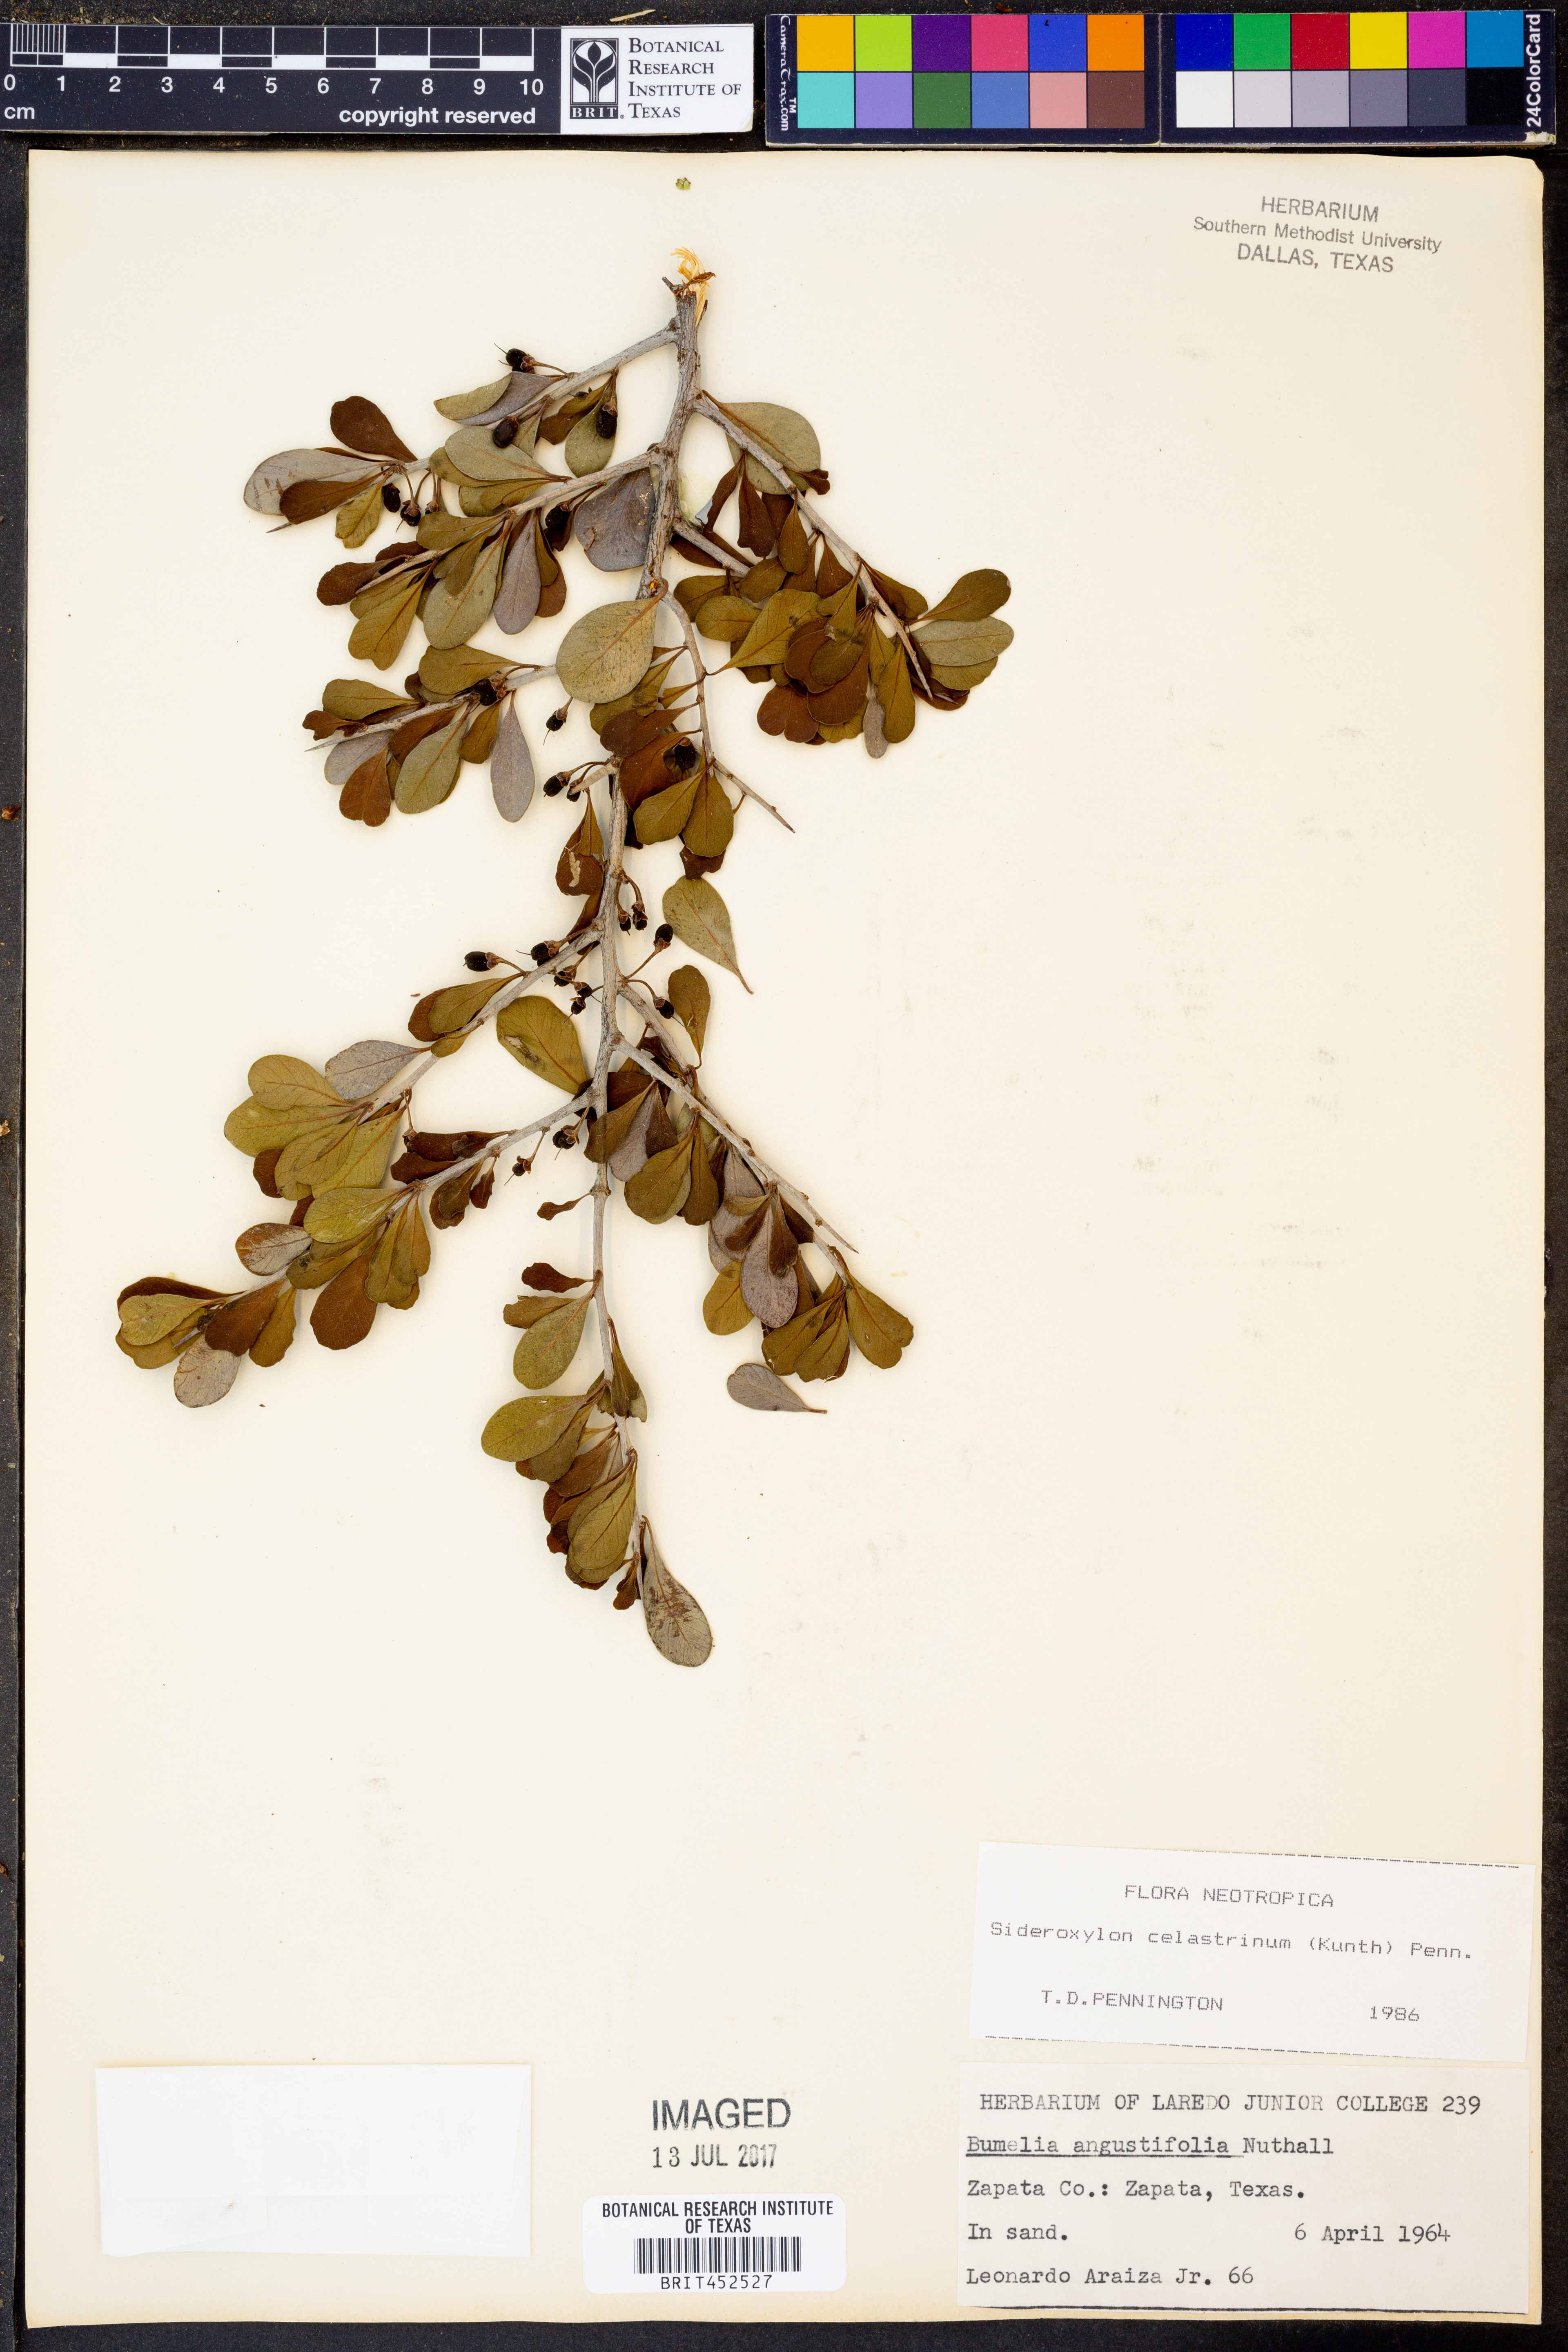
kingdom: Plantae
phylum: Tracheophyta
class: Magnoliopsida
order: Ericales
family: Sapotaceae
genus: Sideroxylon
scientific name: Sideroxylon celastrinum
